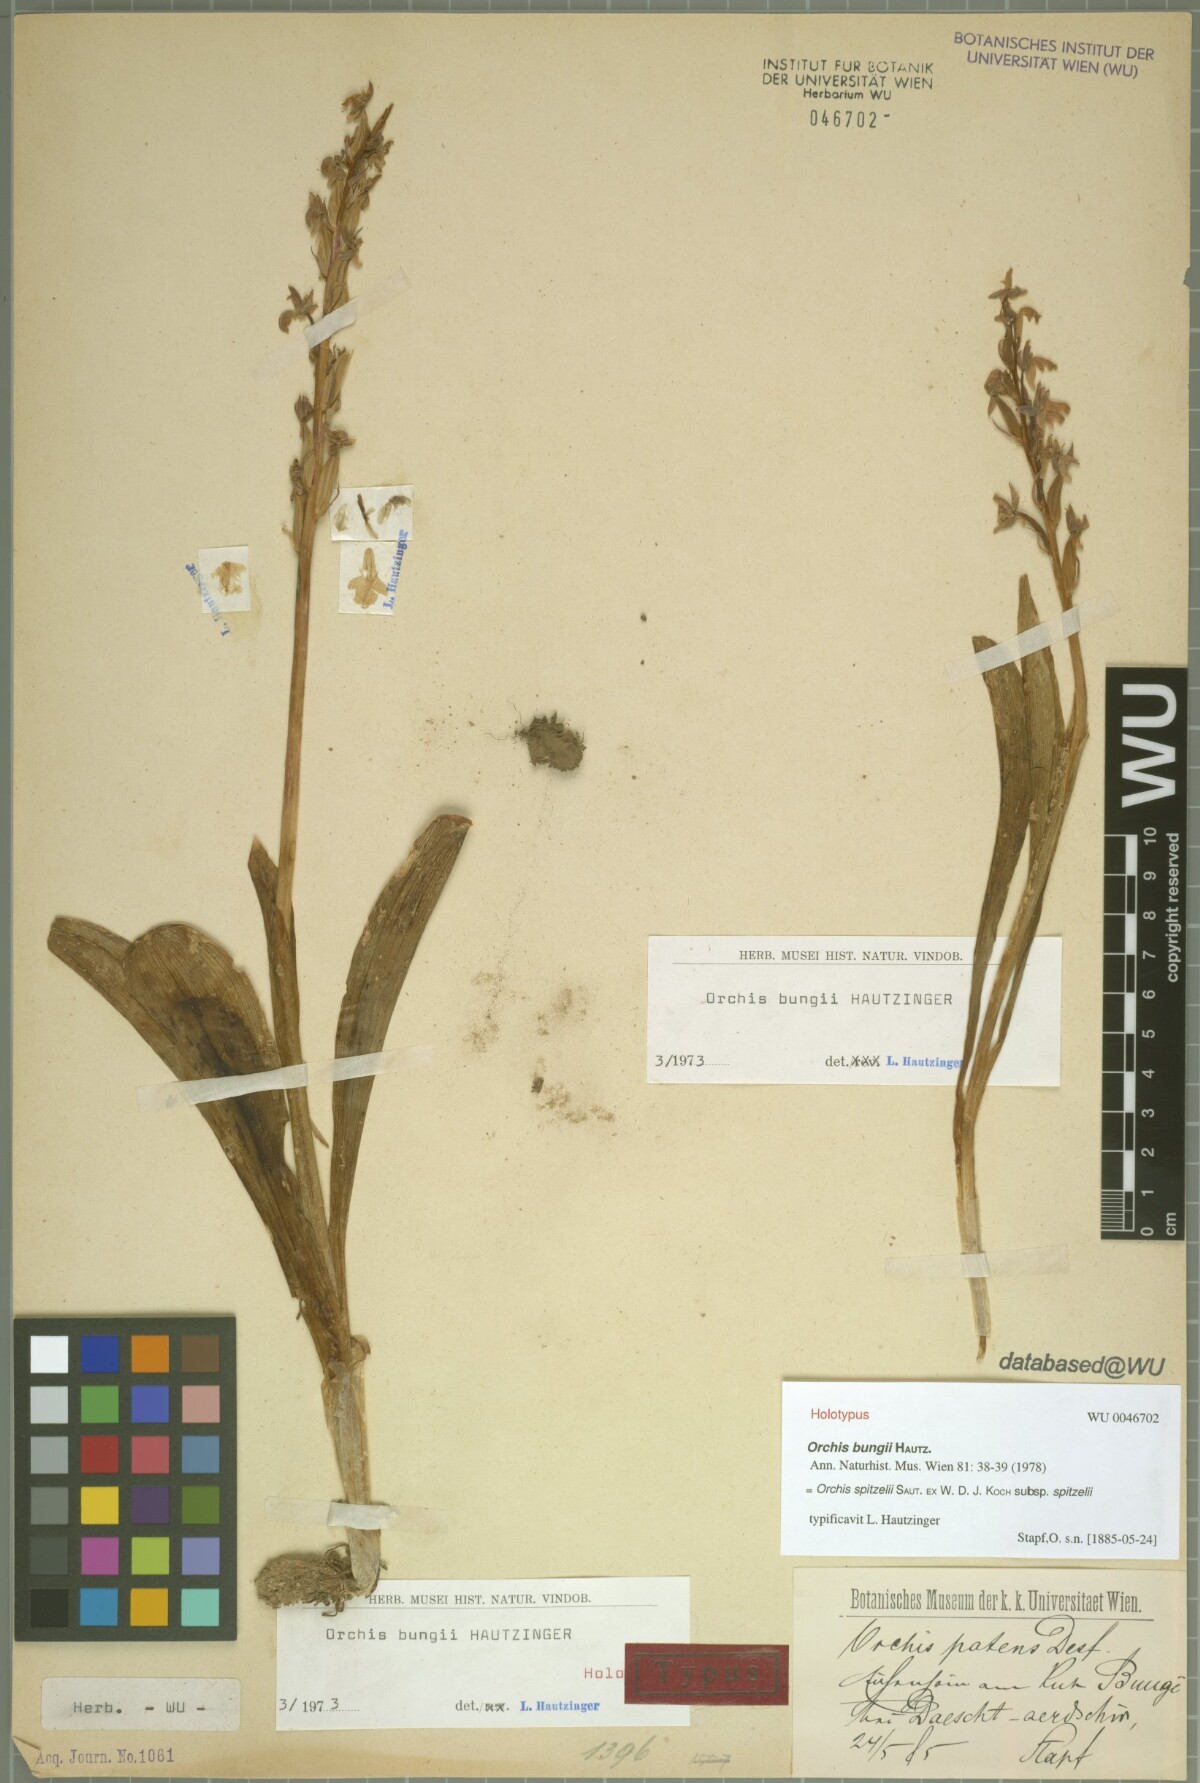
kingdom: Plantae
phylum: Tracheophyta
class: Liliopsida
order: Asparagales
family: Orchidaceae
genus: Orchis
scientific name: Orchis spitzelii
